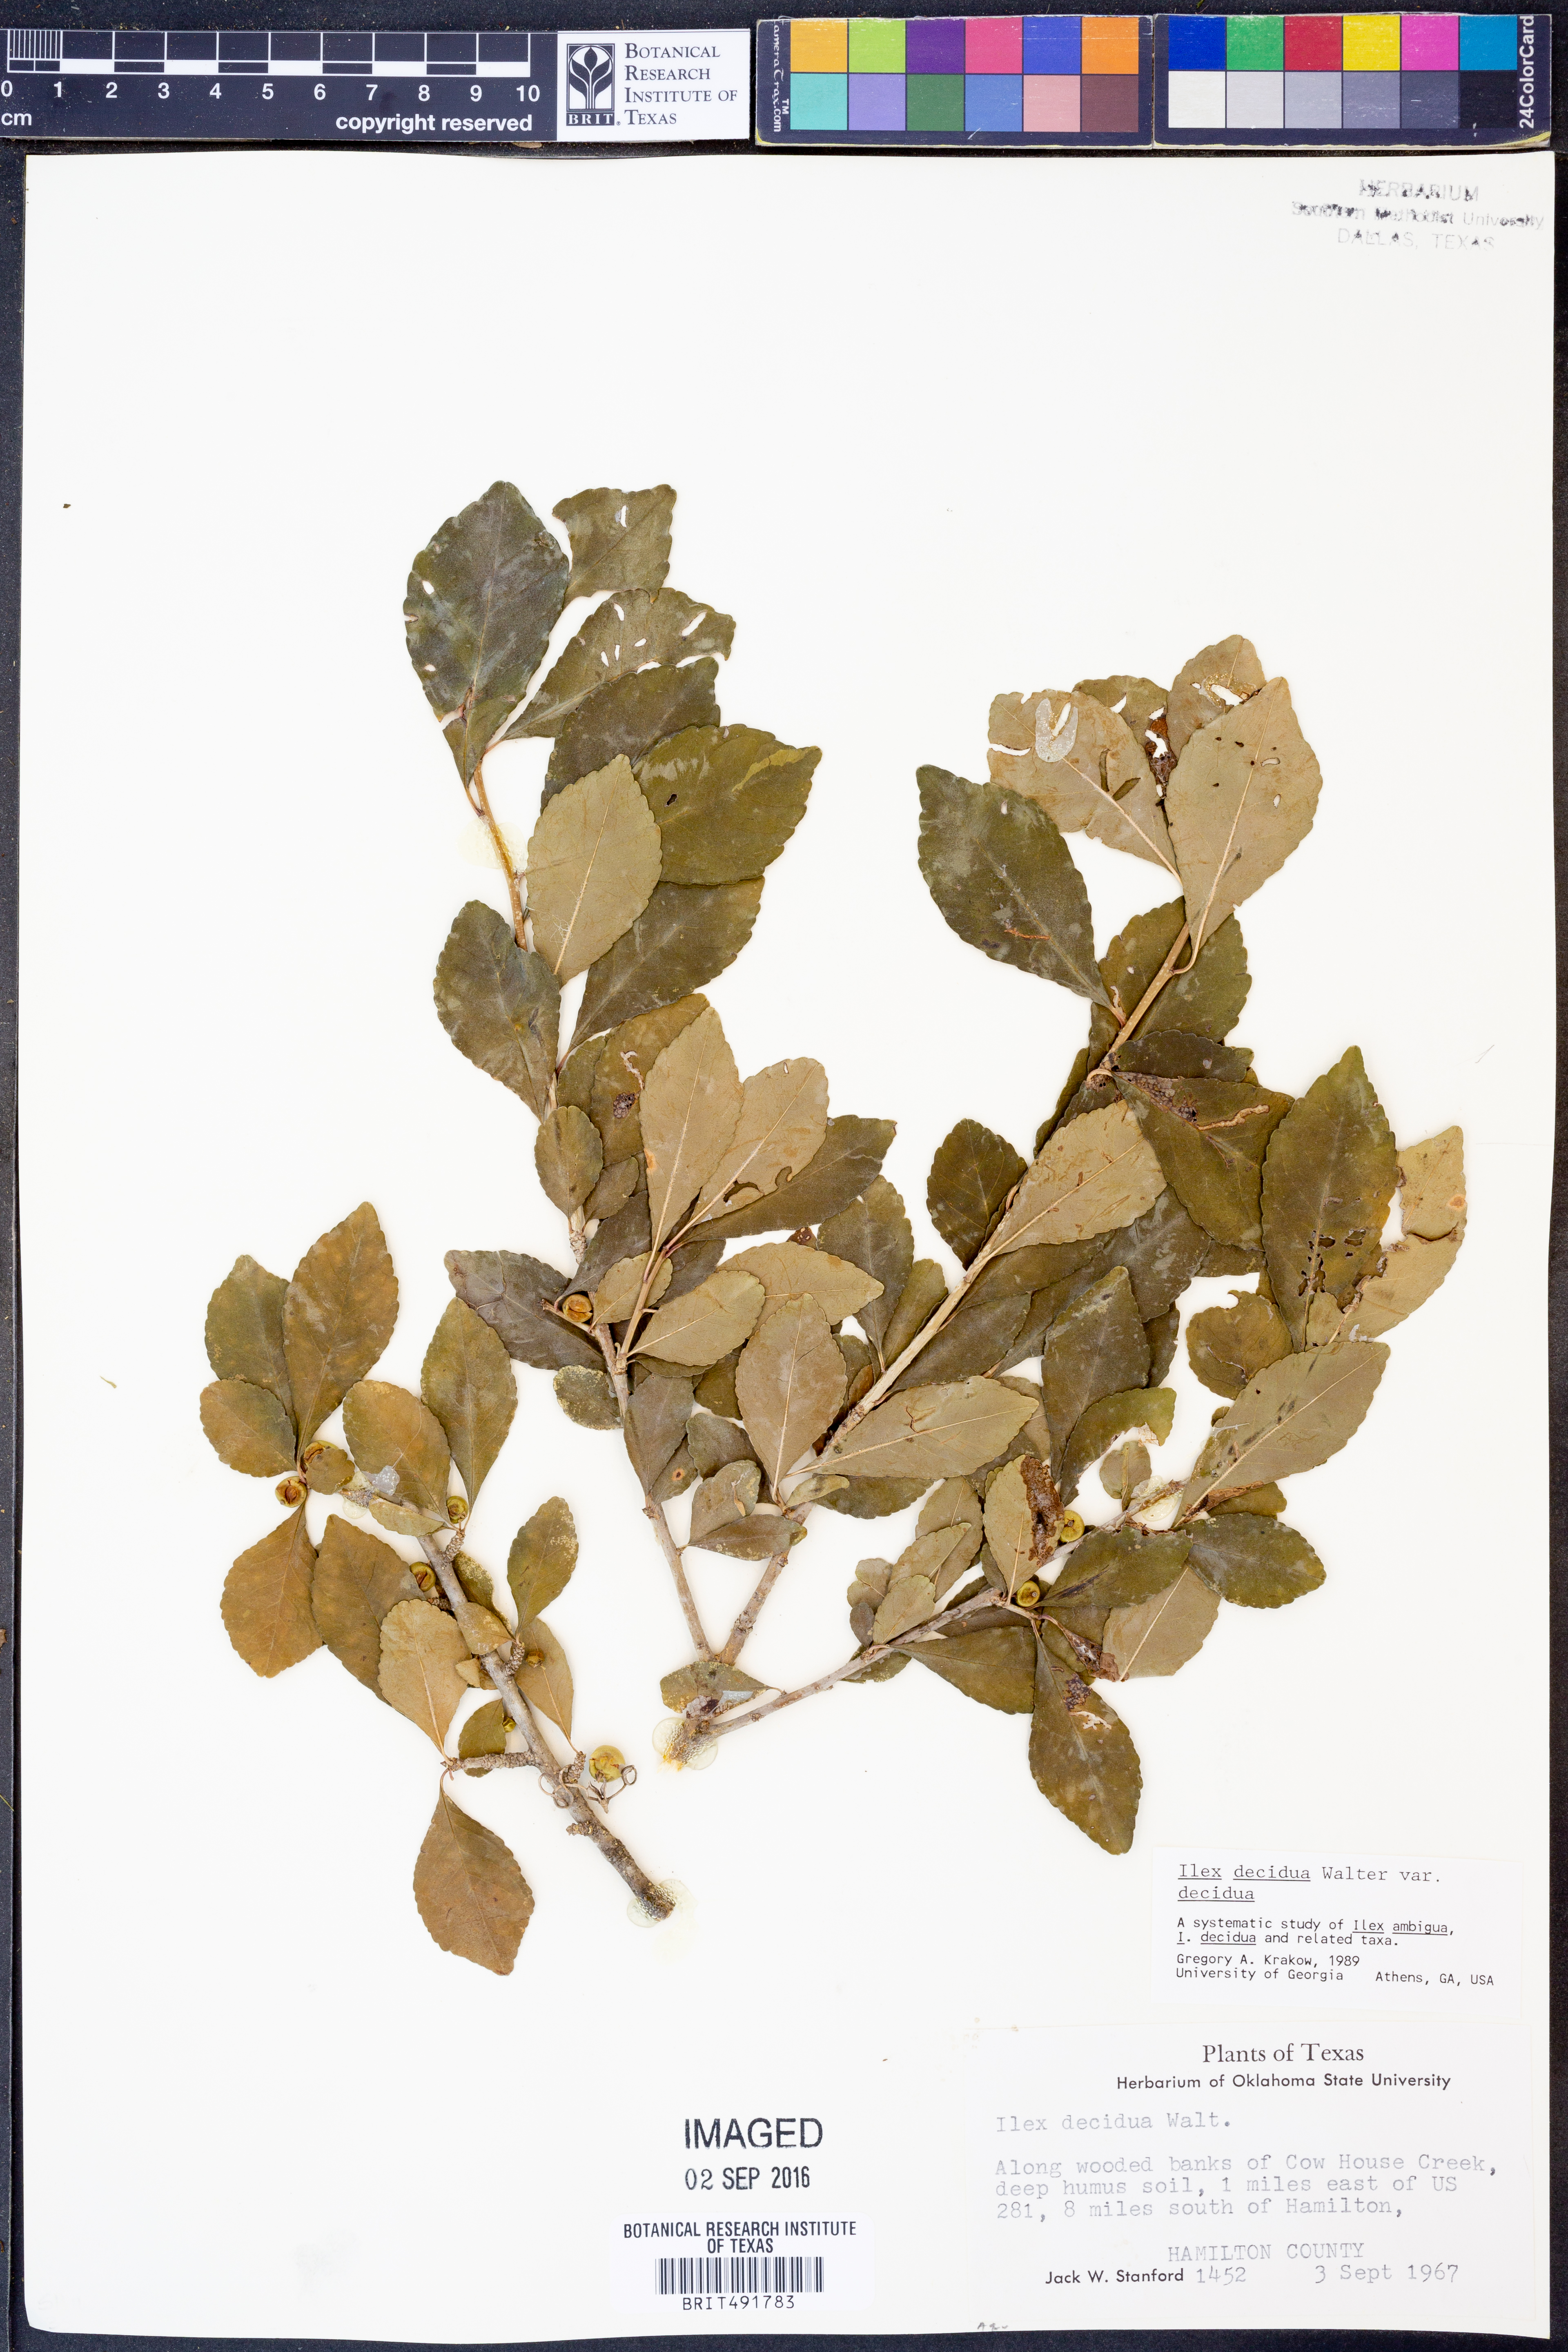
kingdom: Plantae
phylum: Tracheophyta
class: Magnoliopsida
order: Aquifoliales
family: Aquifoliaceae
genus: Ilex
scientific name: Ilex decidua
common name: Possum-haw
